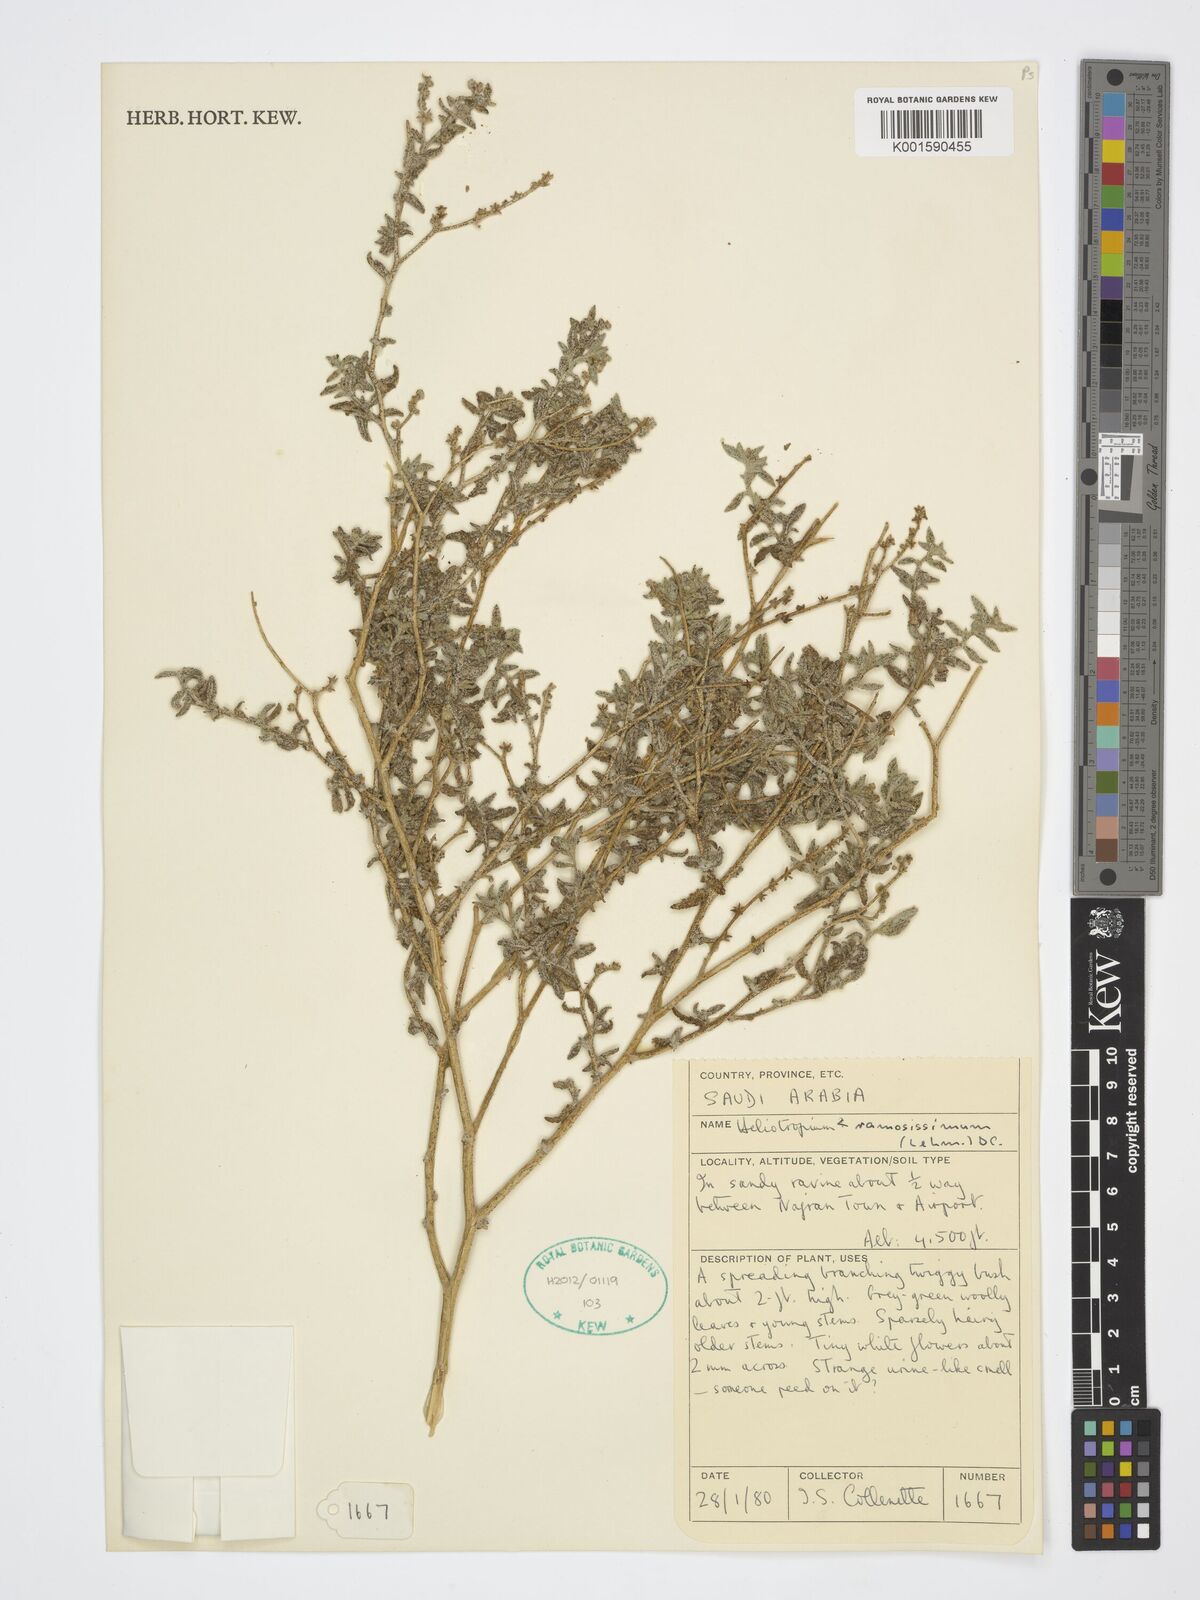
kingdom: Plantae
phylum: Tracheophyta
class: Magnoliopsida
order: Boraginales
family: Heliotropiaceae
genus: Heliotropium
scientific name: Heliotropium ramosissimum
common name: Wavy heliotrope
